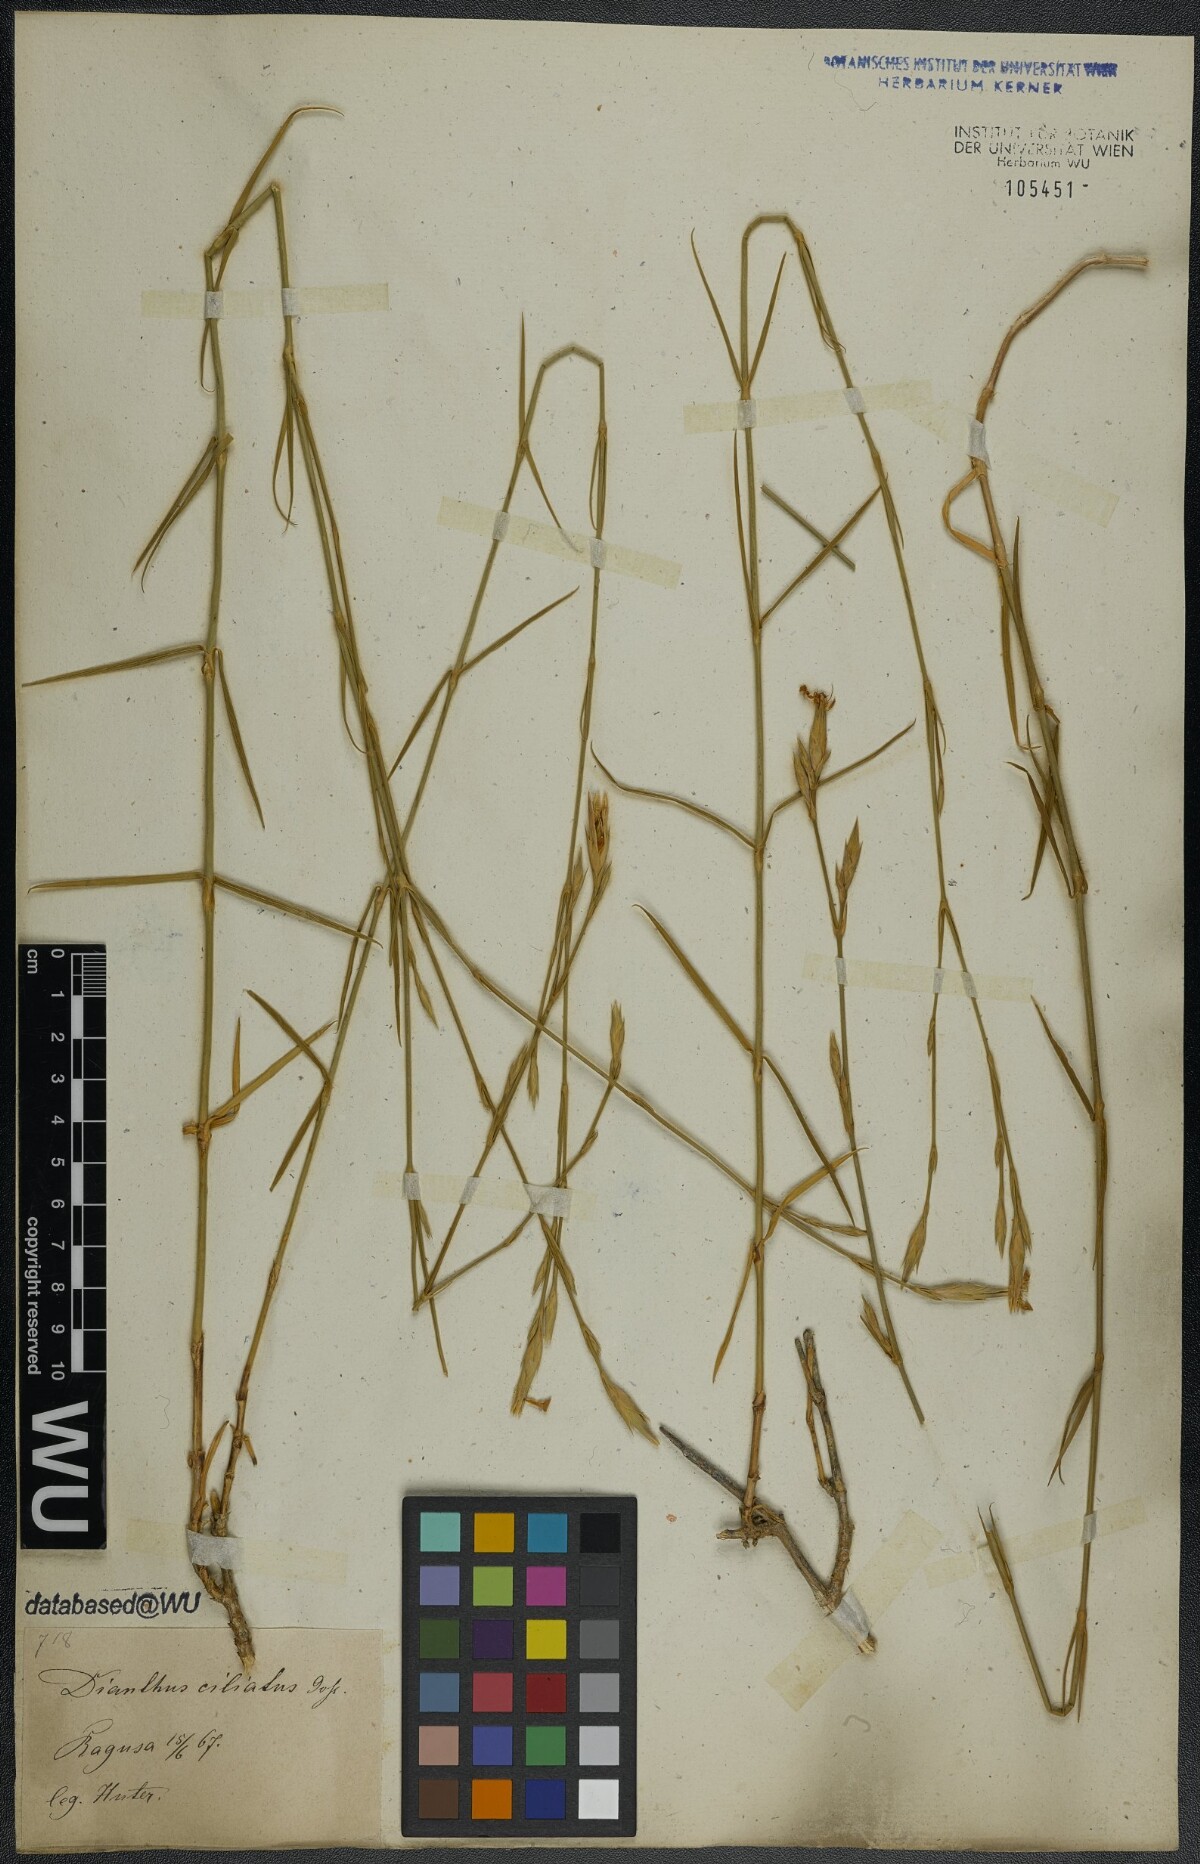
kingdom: Plantae
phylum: Tracheophyta
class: Magnoliopsida
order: Caryophyllales
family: Caryophyllaceae
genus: Dianthus
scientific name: Dianthus ciliatus
